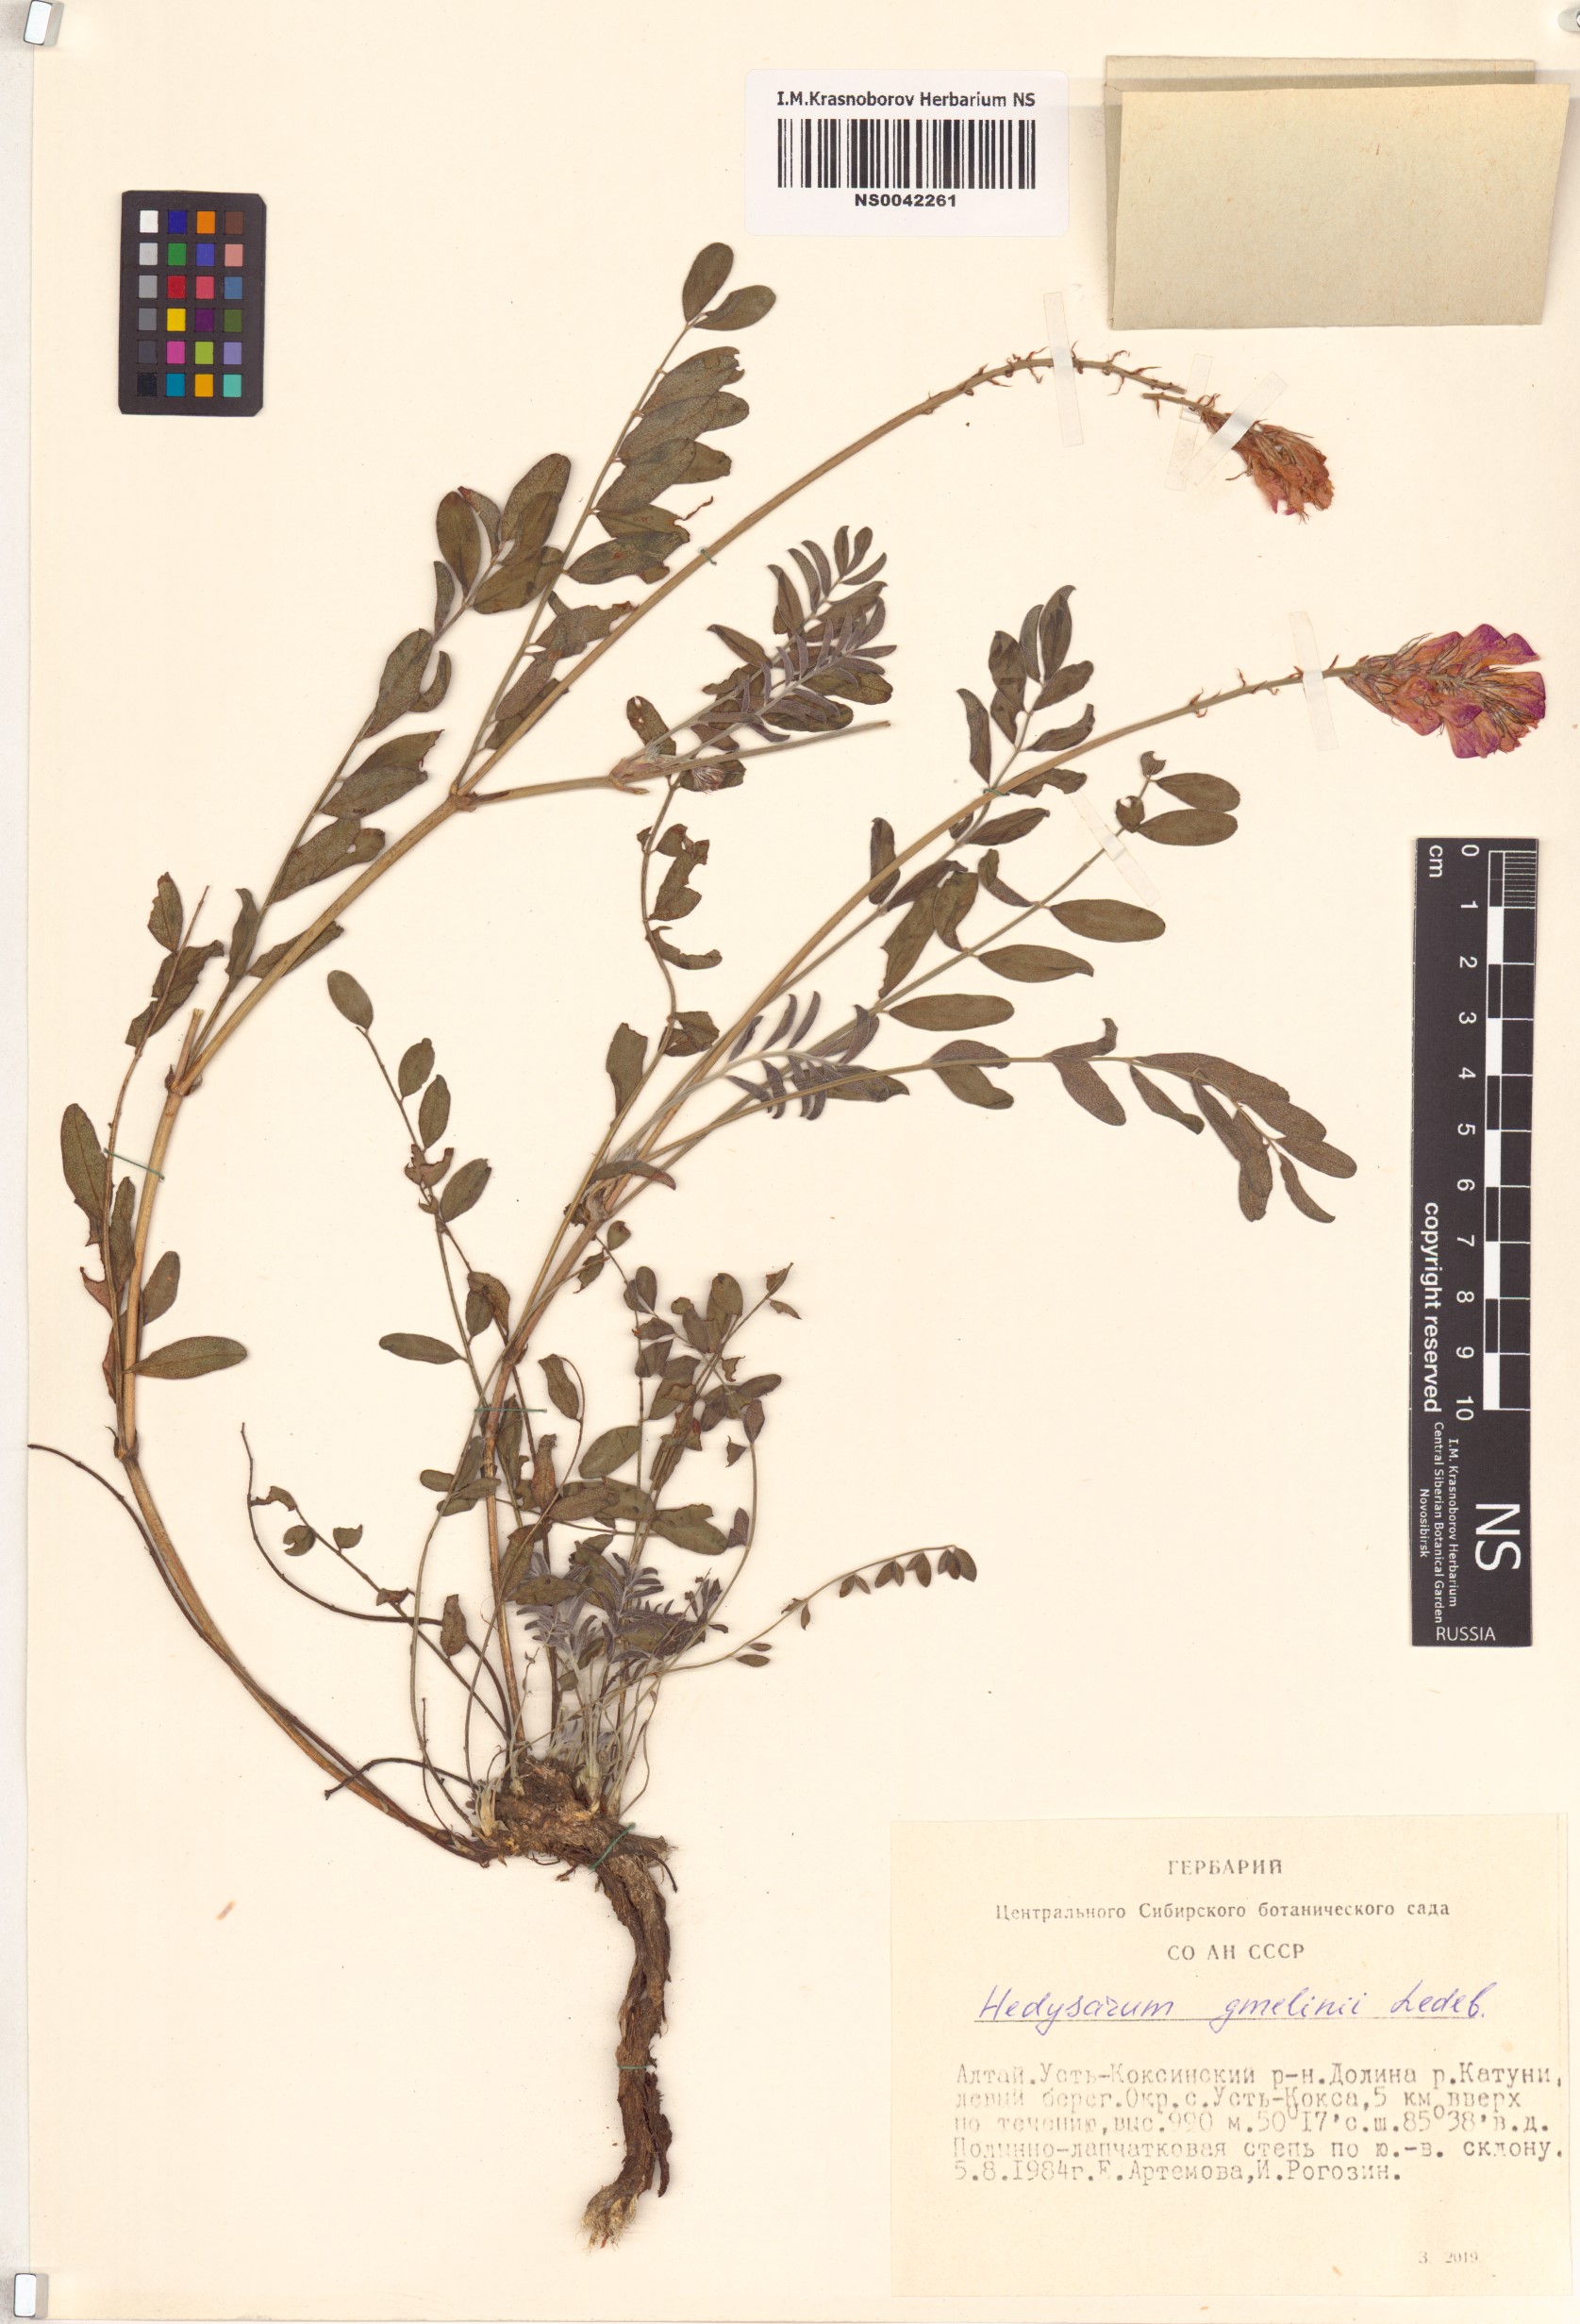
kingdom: Plantae
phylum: Tracheophyta
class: Magnoliopsida
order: Fabales
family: Fabaceae
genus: Hedysarum
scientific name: Hedysarum gmelinii
